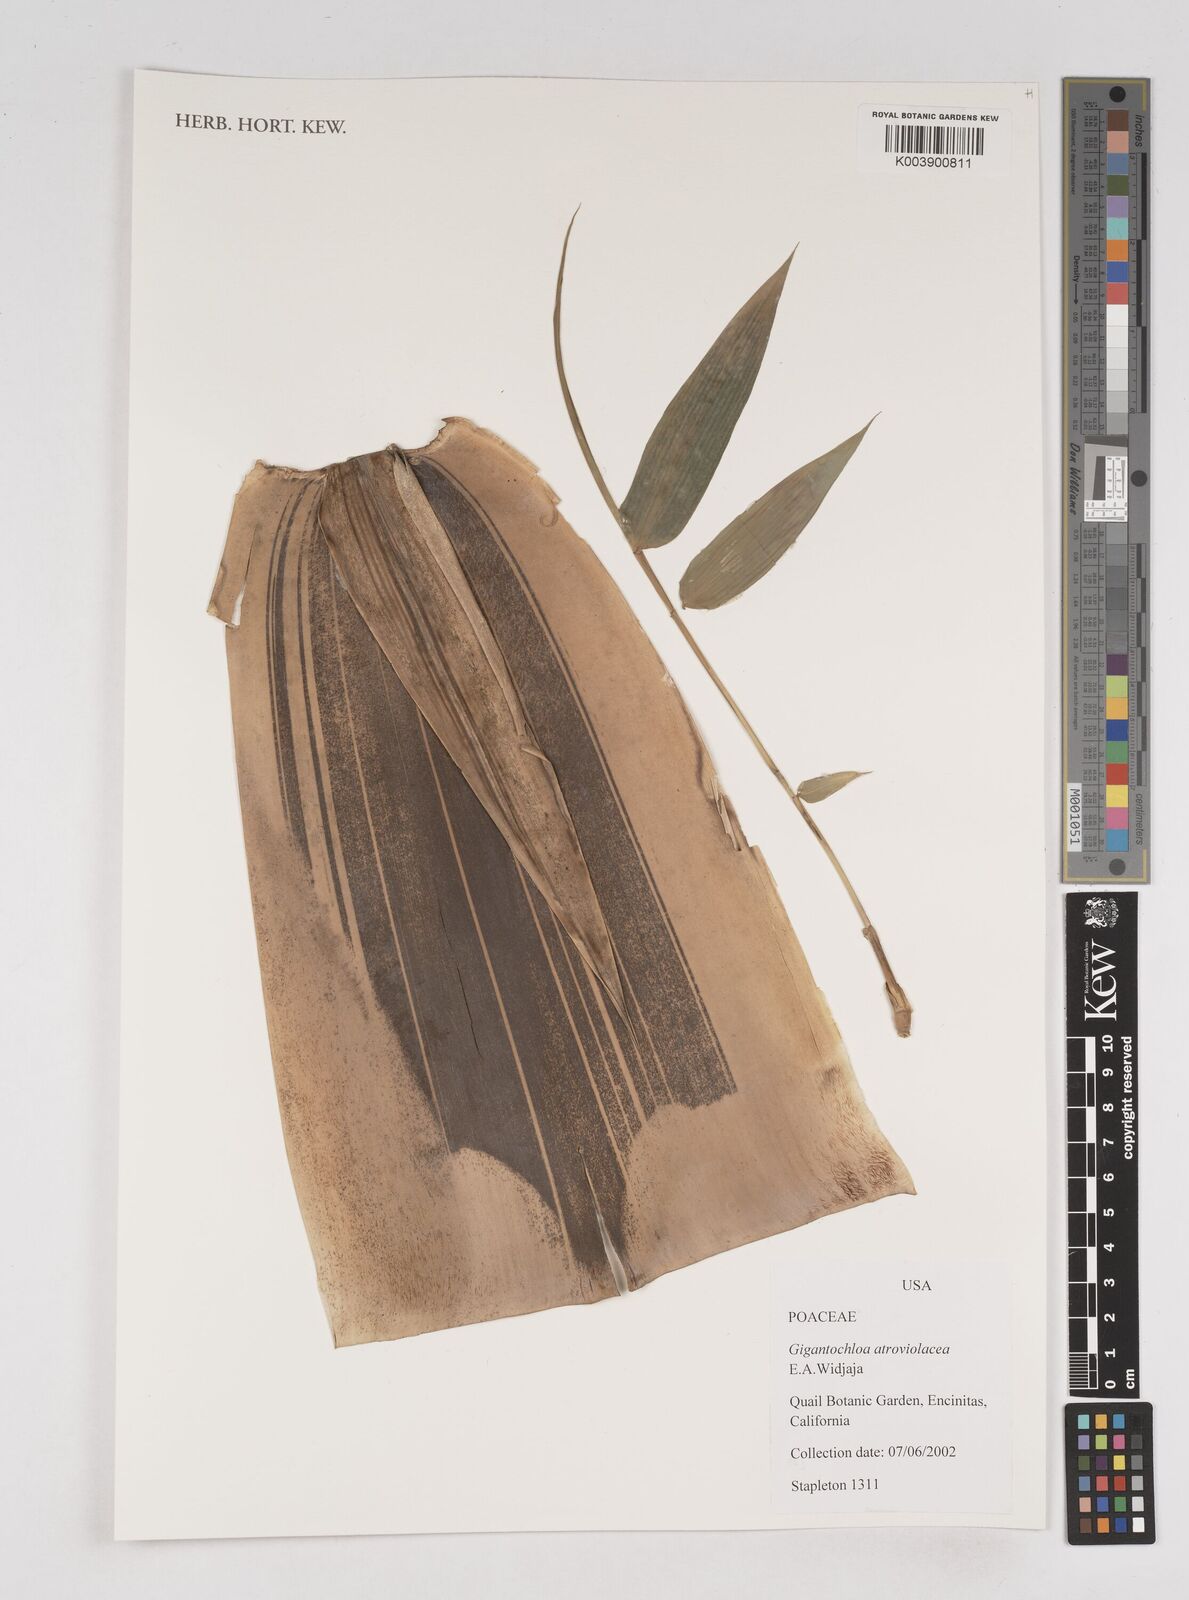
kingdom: Plantae
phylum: Tracheophyta
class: Liliopsida
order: Poales
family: Poaceae
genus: Gigantochloa
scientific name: Gigantochloa atroviolacea
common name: Black bamboo
